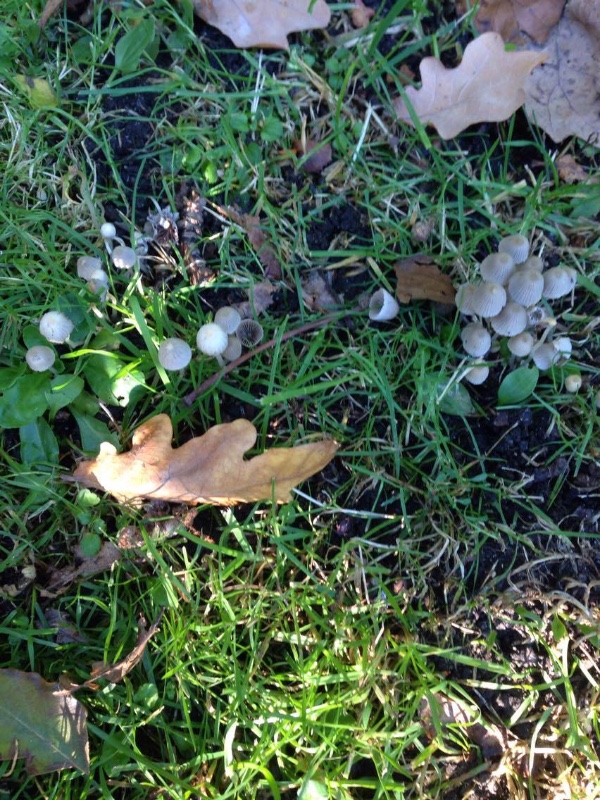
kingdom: Fungi
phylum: Basidiomycota
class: Agaricomycetes
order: Agaricales
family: Psathyrellaceae
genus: Coprinellus
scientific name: Coprinellus disseminatus
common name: bredsået blækhat
